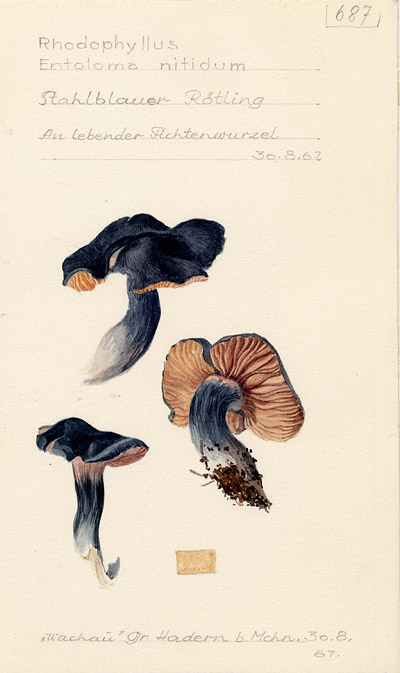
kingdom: Fungi
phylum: Basidiomycota
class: Agaricomycetes
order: Agaricales
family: Entolomataceae
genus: Entocybe
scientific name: Entocybe nitida
